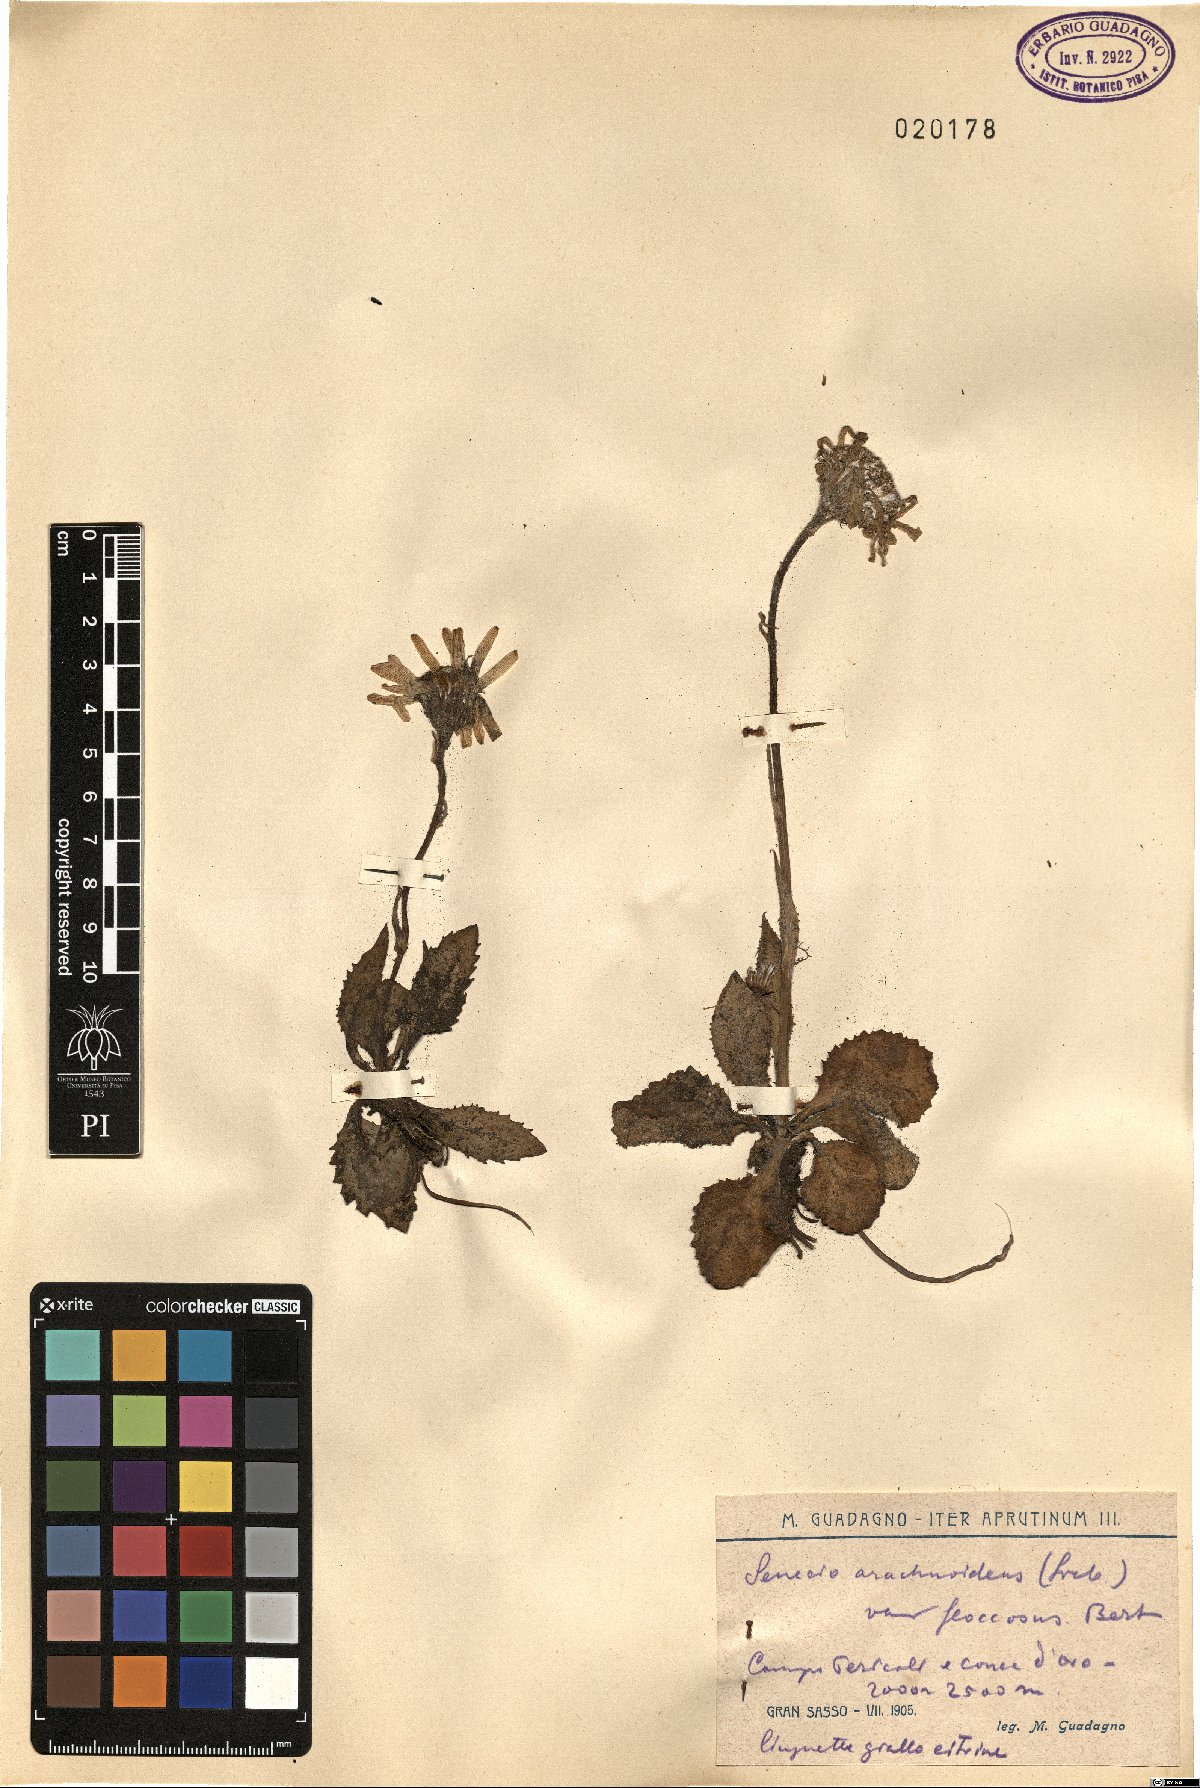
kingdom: Plantae
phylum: Tracheophyta
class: Magnoliopsida
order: Asterales
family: Asteraceae
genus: Senecio
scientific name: Senecio scopolii
